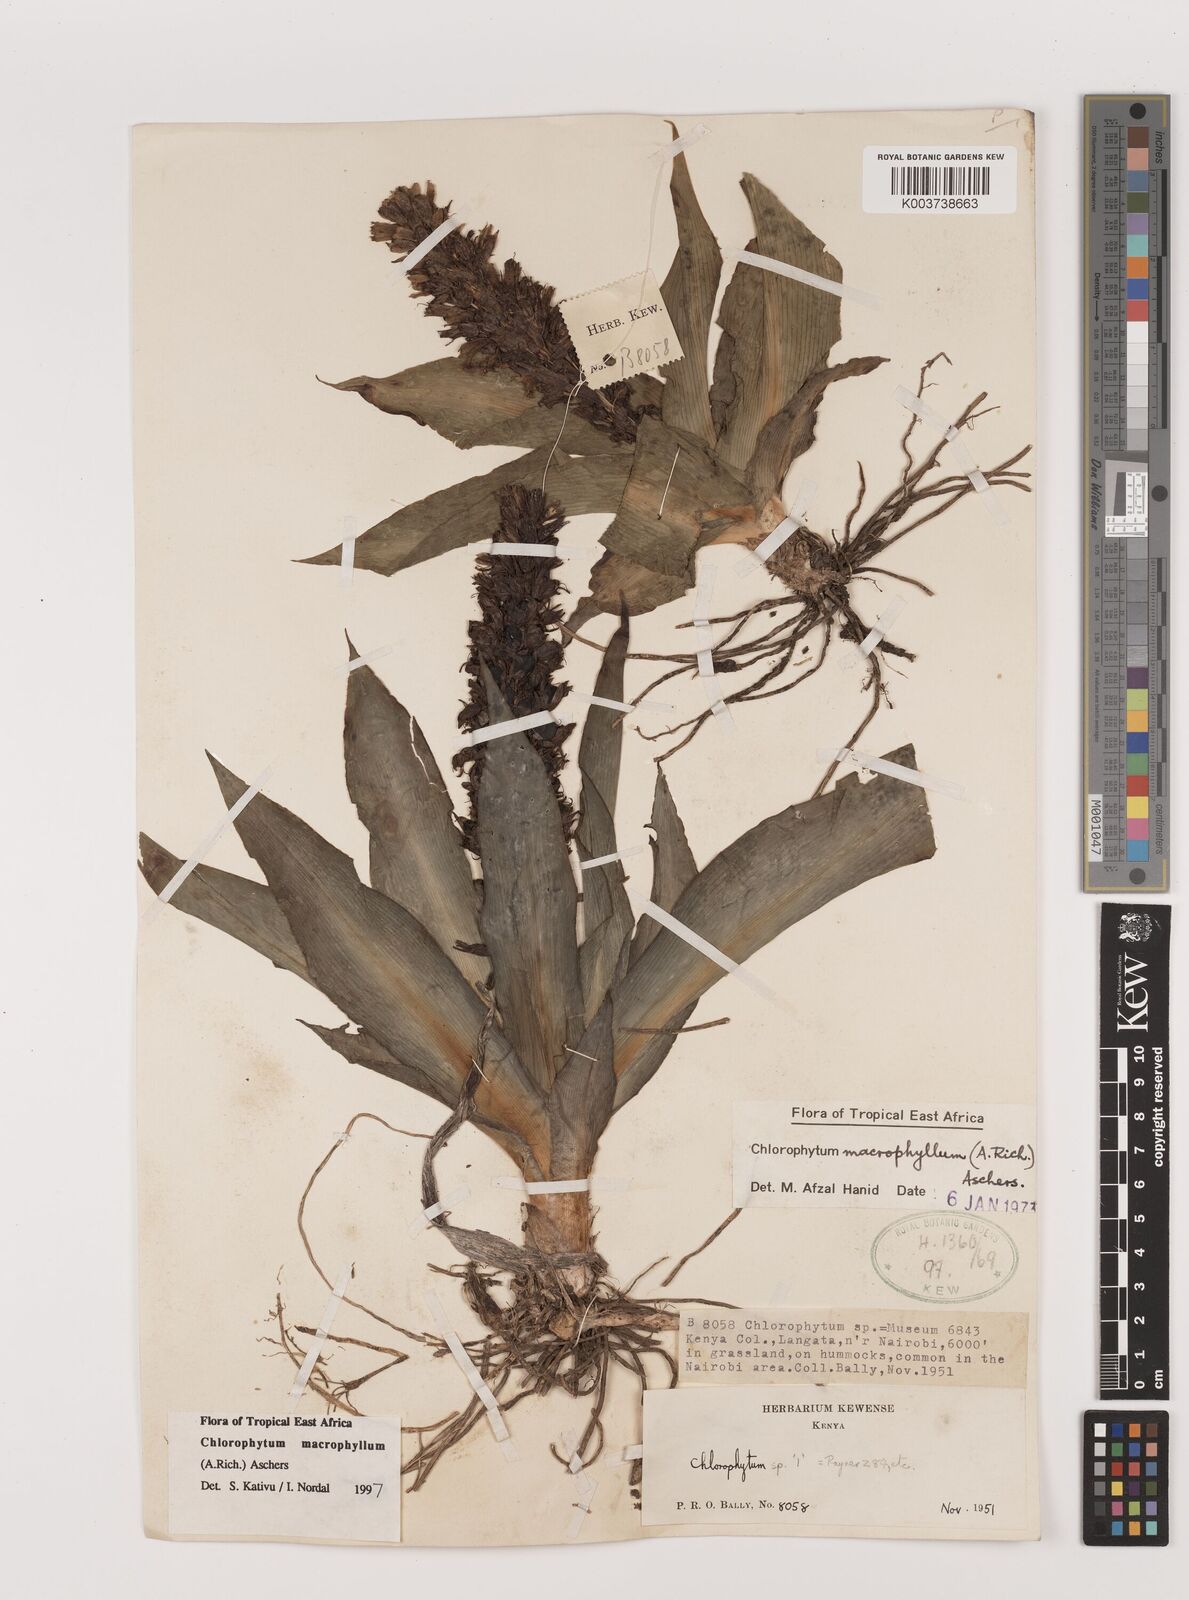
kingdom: Plantae
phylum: Tracheophyta
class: Liliopsida
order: Asparagales
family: Asparagaceae
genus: Chlorophytum
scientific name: Chlorophytum macrophyllum
